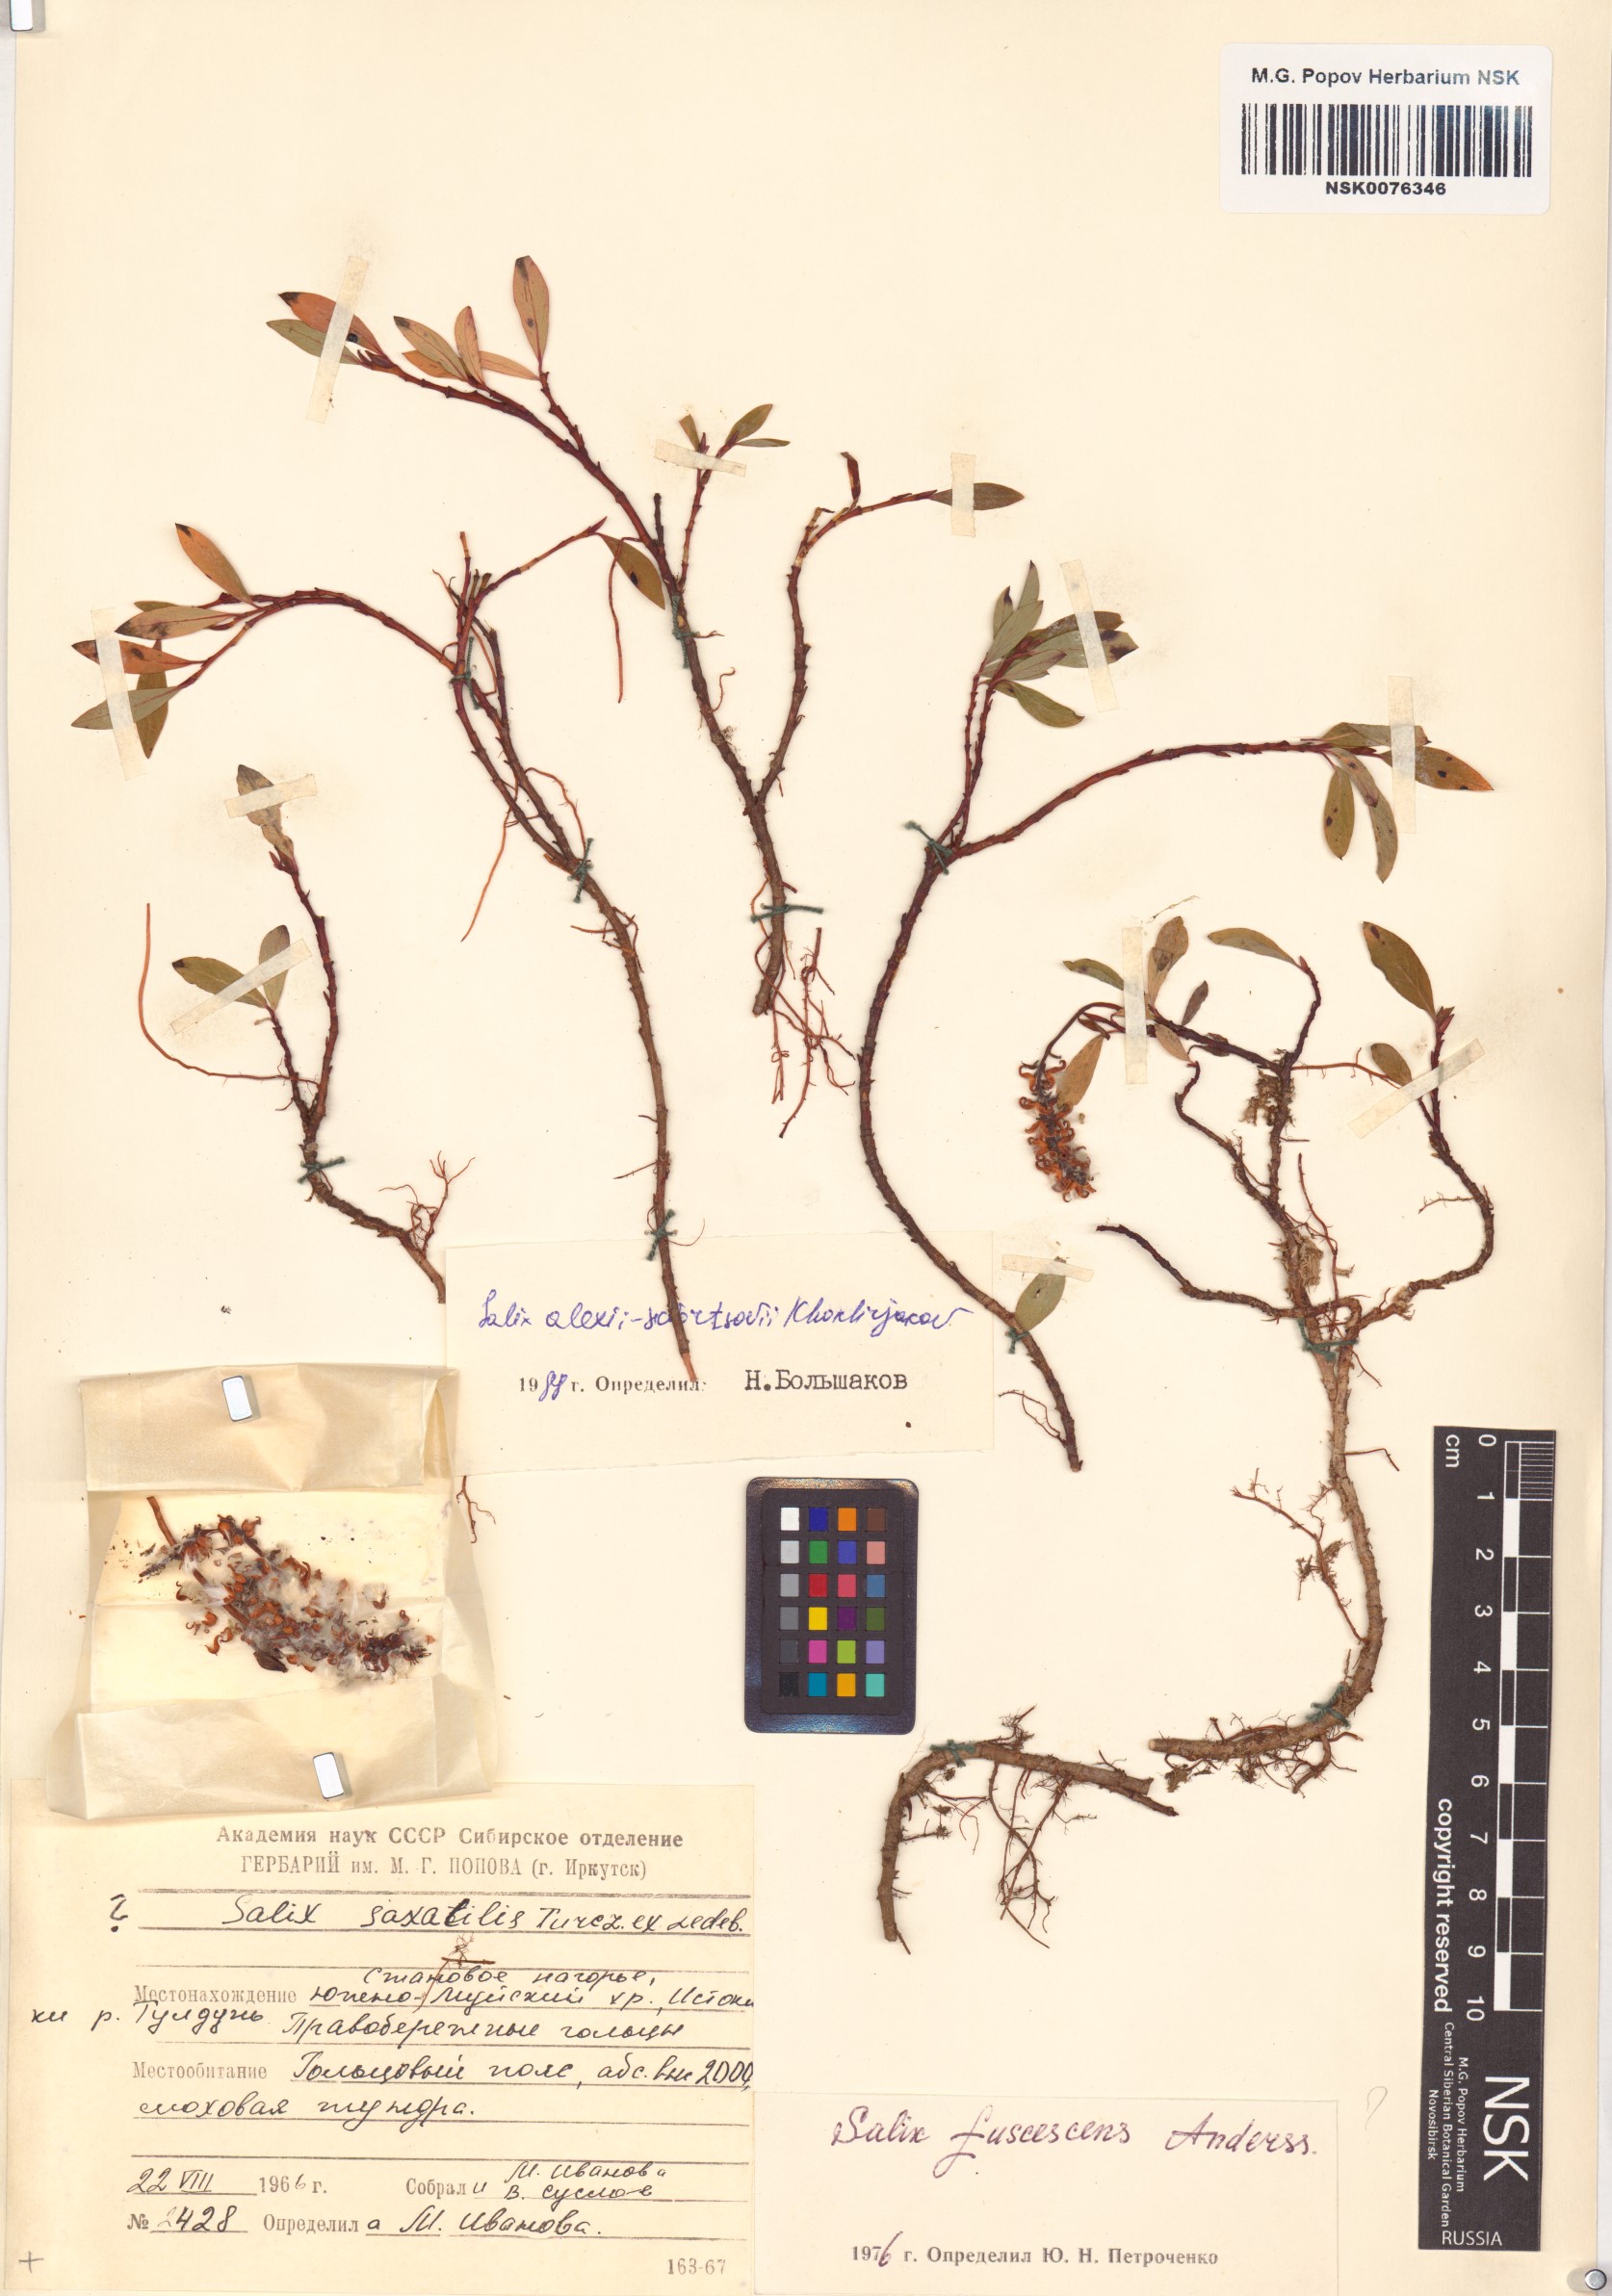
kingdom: Plantae
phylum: Tracheophyta
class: Magnoliopsida
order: Malpighiales
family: Salicaceae
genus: Salix
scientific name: Salix alexii-skvortzovii
